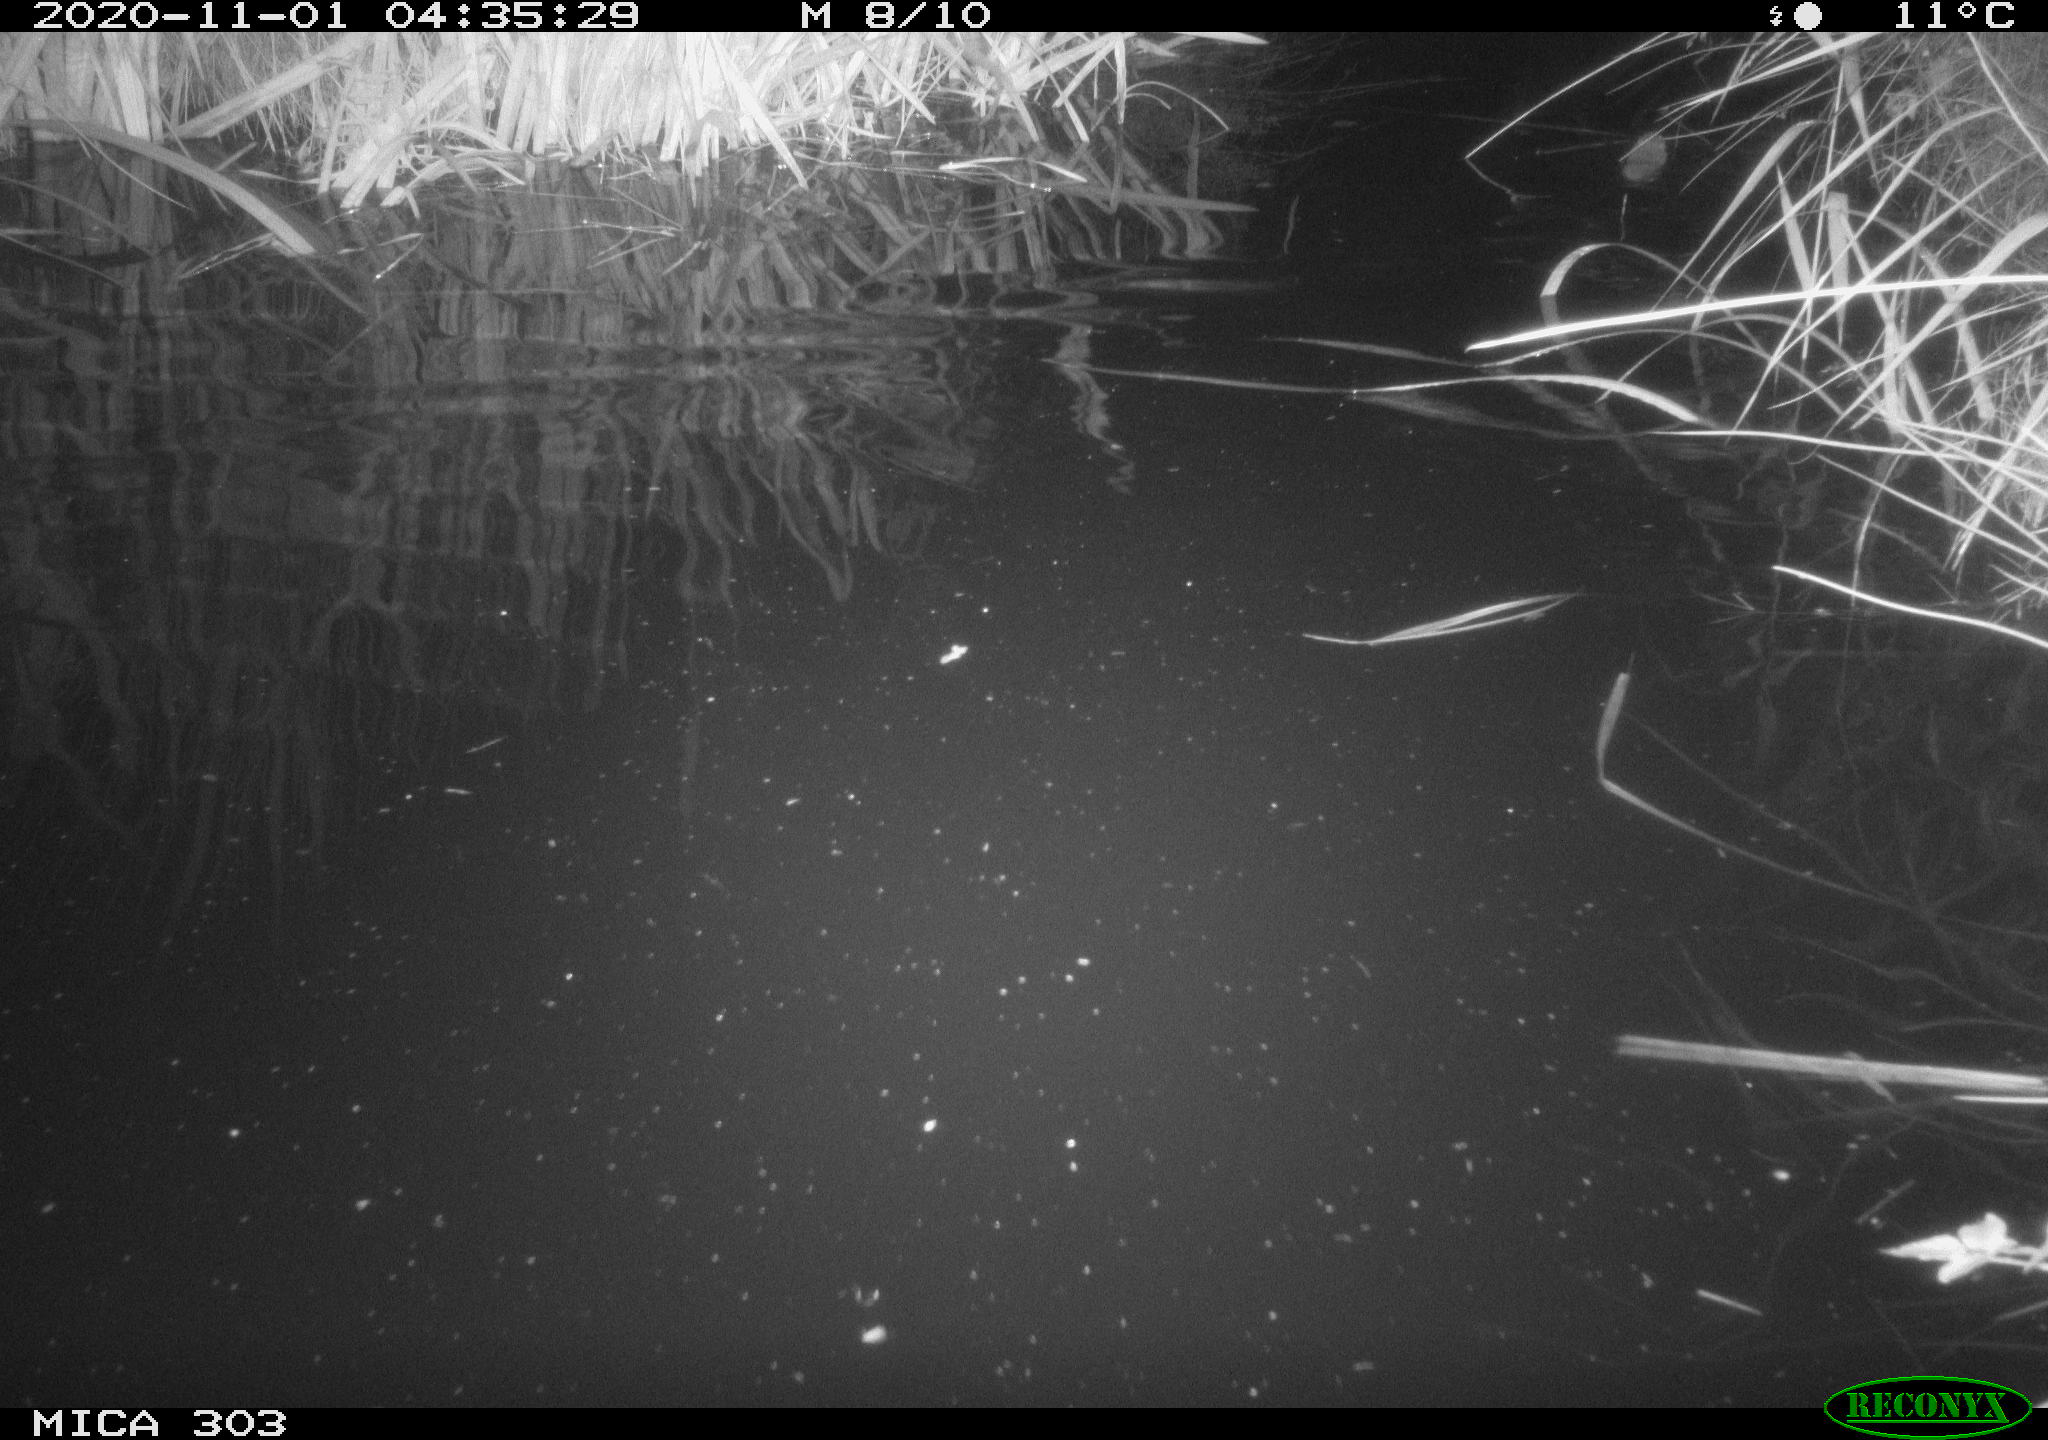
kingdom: Animalia
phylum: Chordata
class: Mammalia
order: Rodentia
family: Muridae
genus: Rattus
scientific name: Rattus norvegicus
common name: Brown rat
